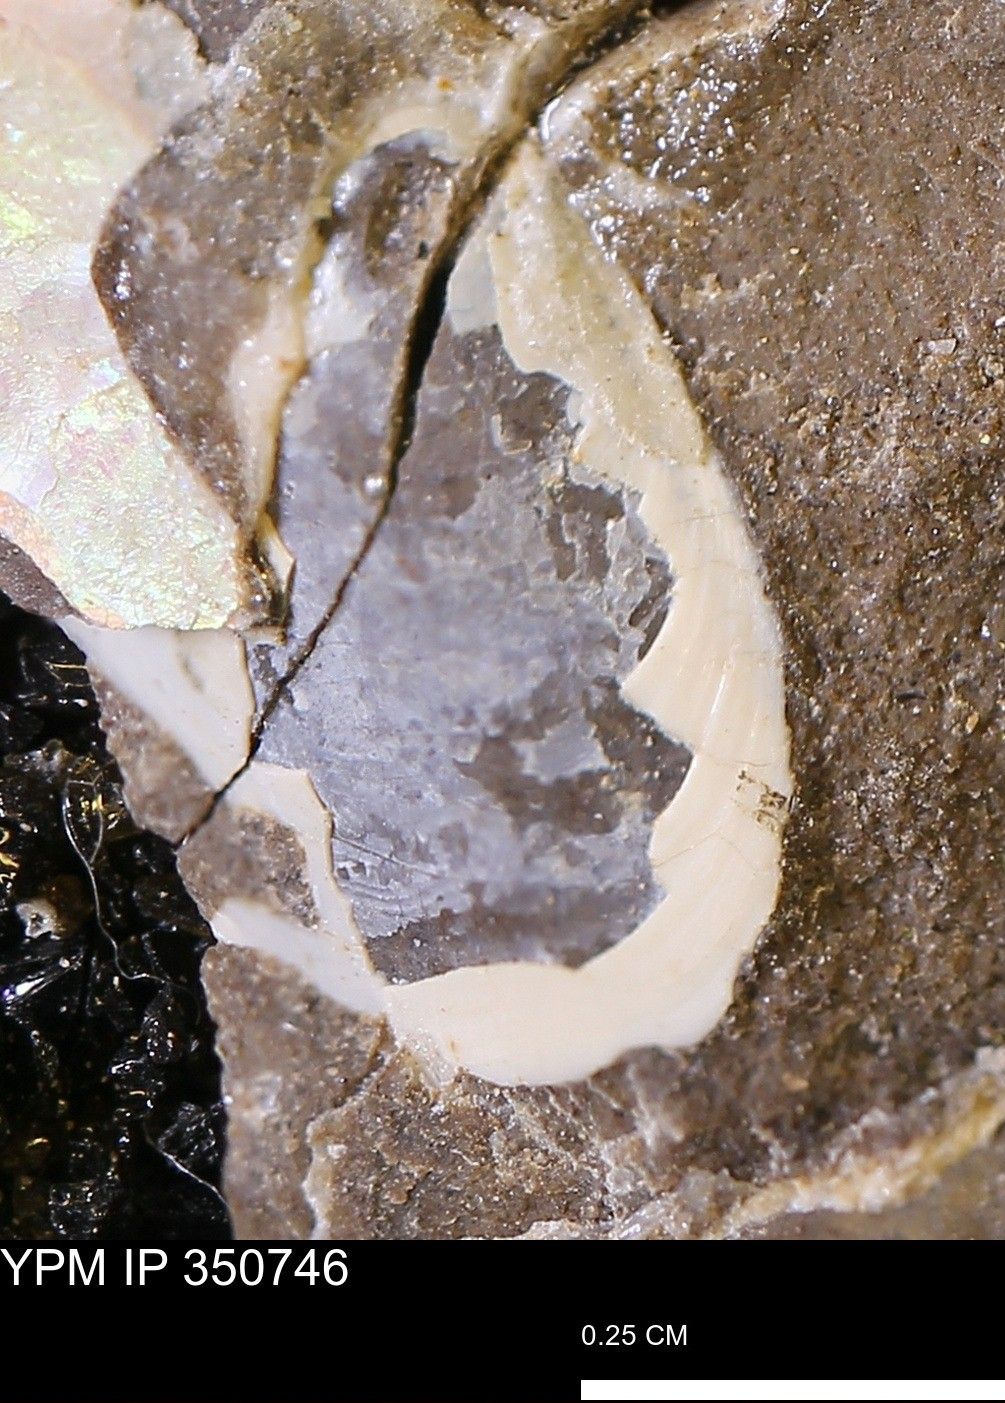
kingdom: Animalia
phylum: Mollusca
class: Bivalvia
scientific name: Bivalvia
